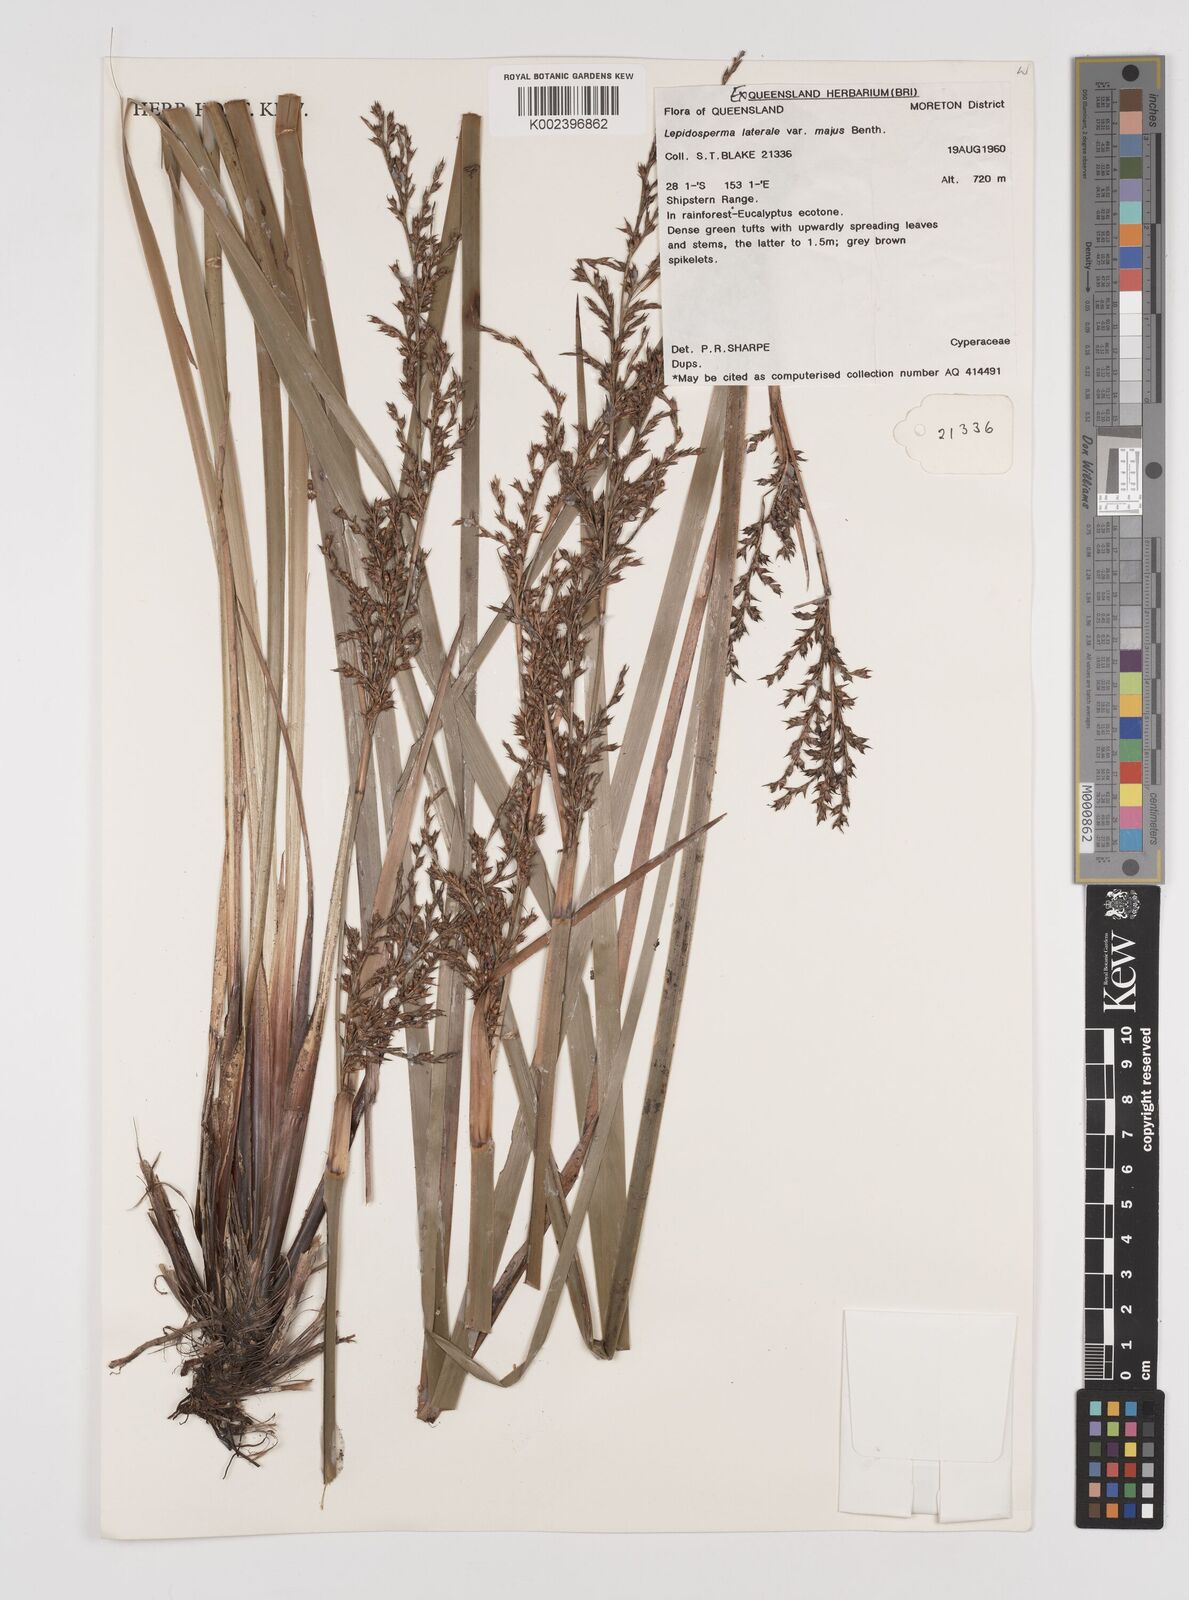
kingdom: Plantae
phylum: Tracheophyta
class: Liliopsida
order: Poales
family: Cyperaceae
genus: Lepidosperma
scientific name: Lepidosperma laterale
